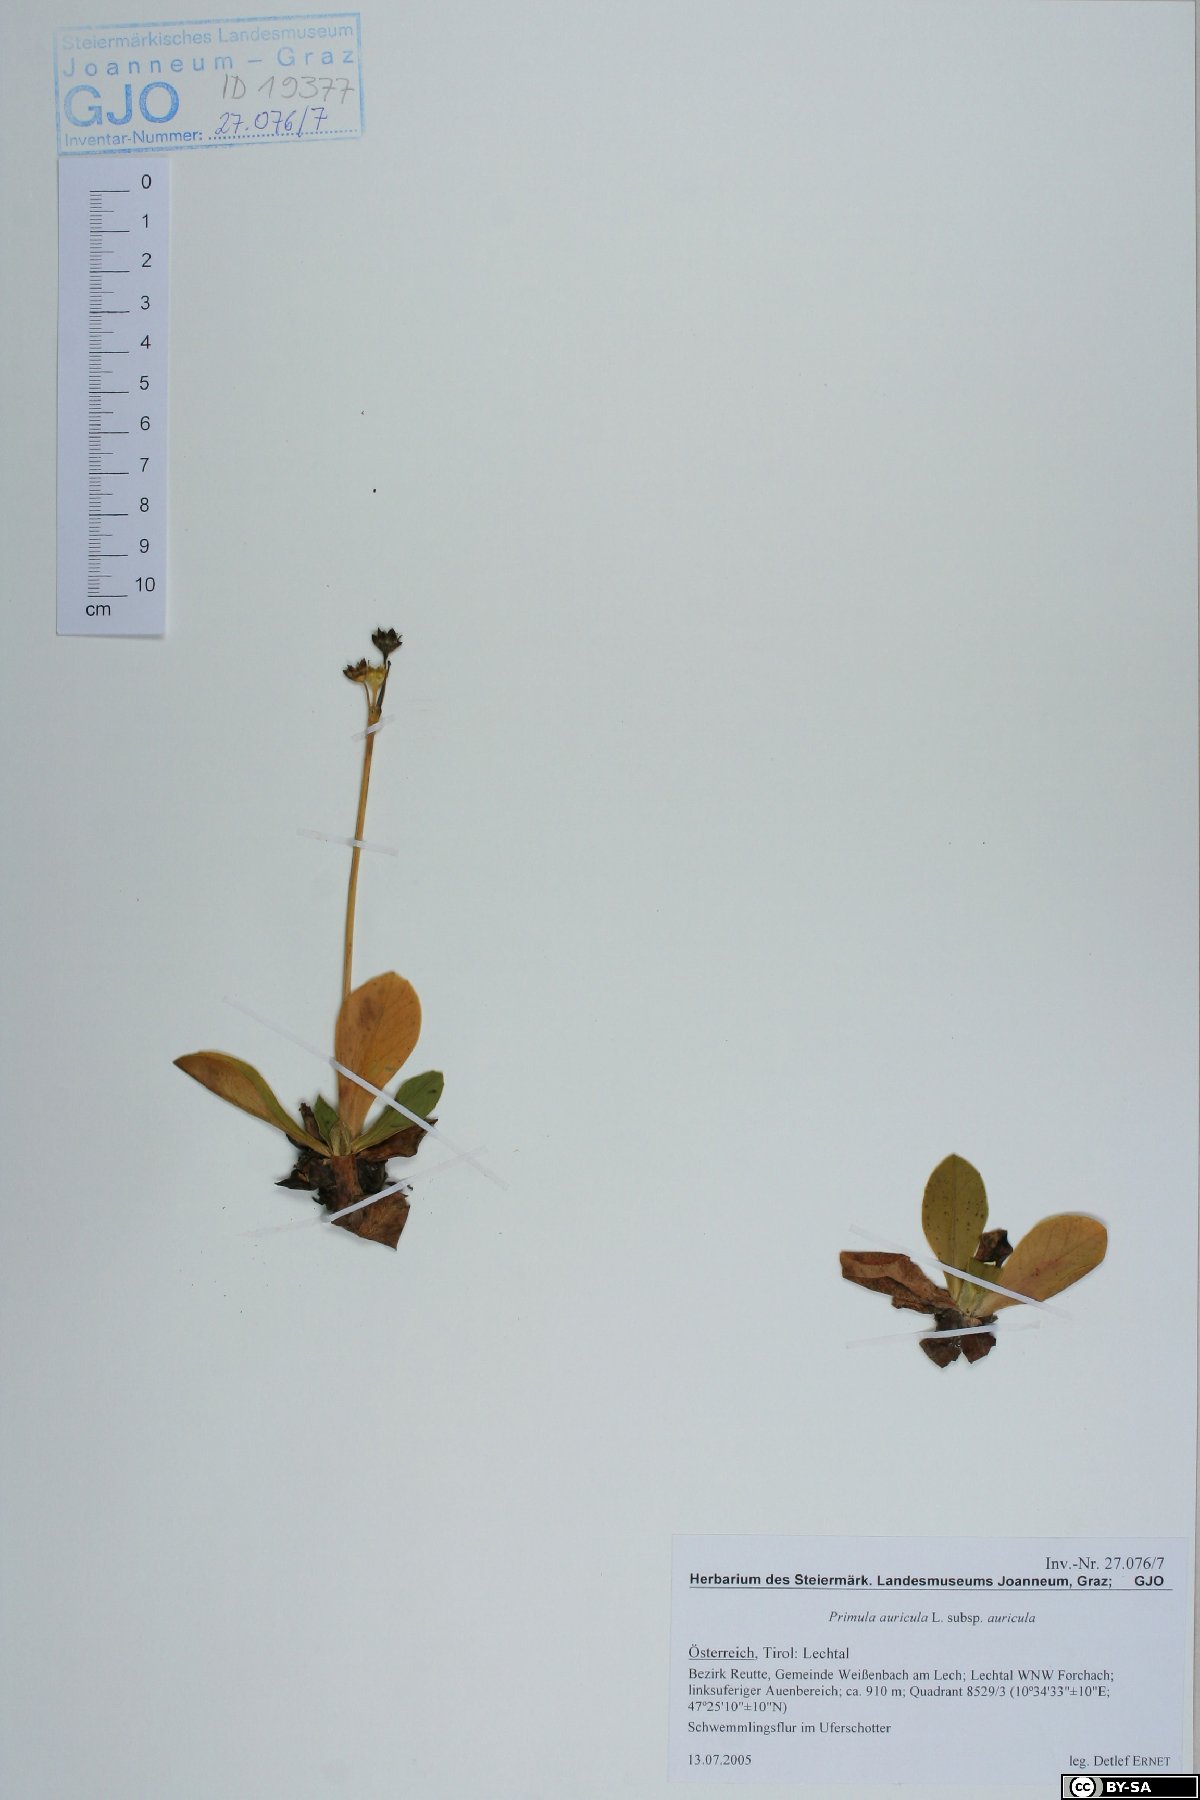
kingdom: Plantae
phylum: Tracheophyta
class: Magnoliopsida
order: Ericales
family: Primulaceae
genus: Primula
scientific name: Primula auricula
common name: Auricula
